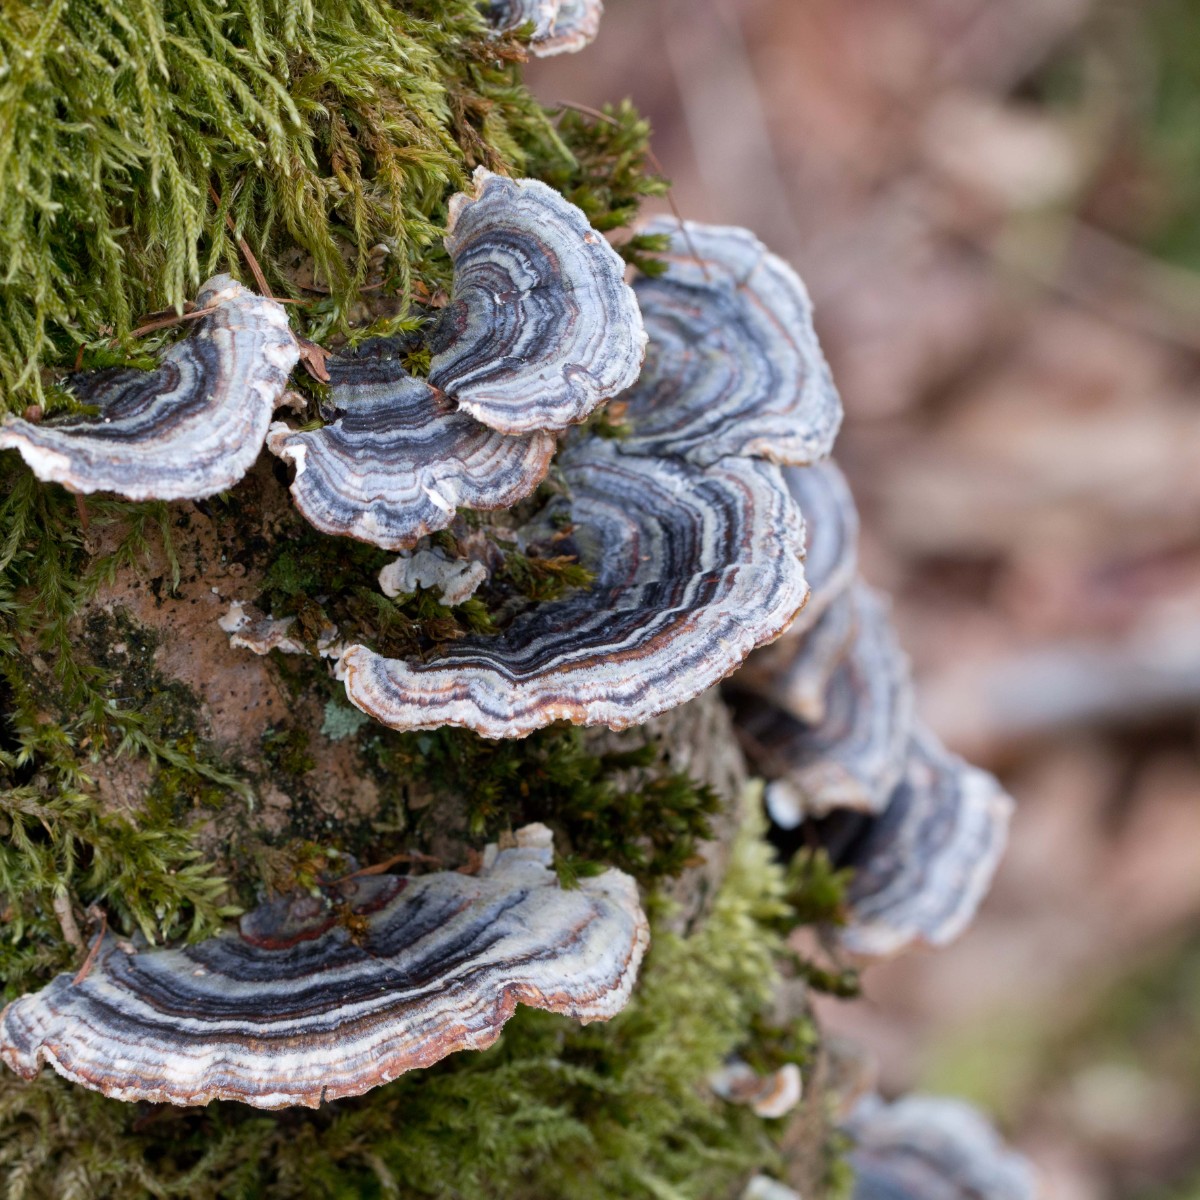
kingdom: Fungi
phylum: Basidiomycota
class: Agaricomycetes
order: Polyporales
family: Polyporaceae
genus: Trametes
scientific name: Trametes versicolor
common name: broget læderporesvamp
